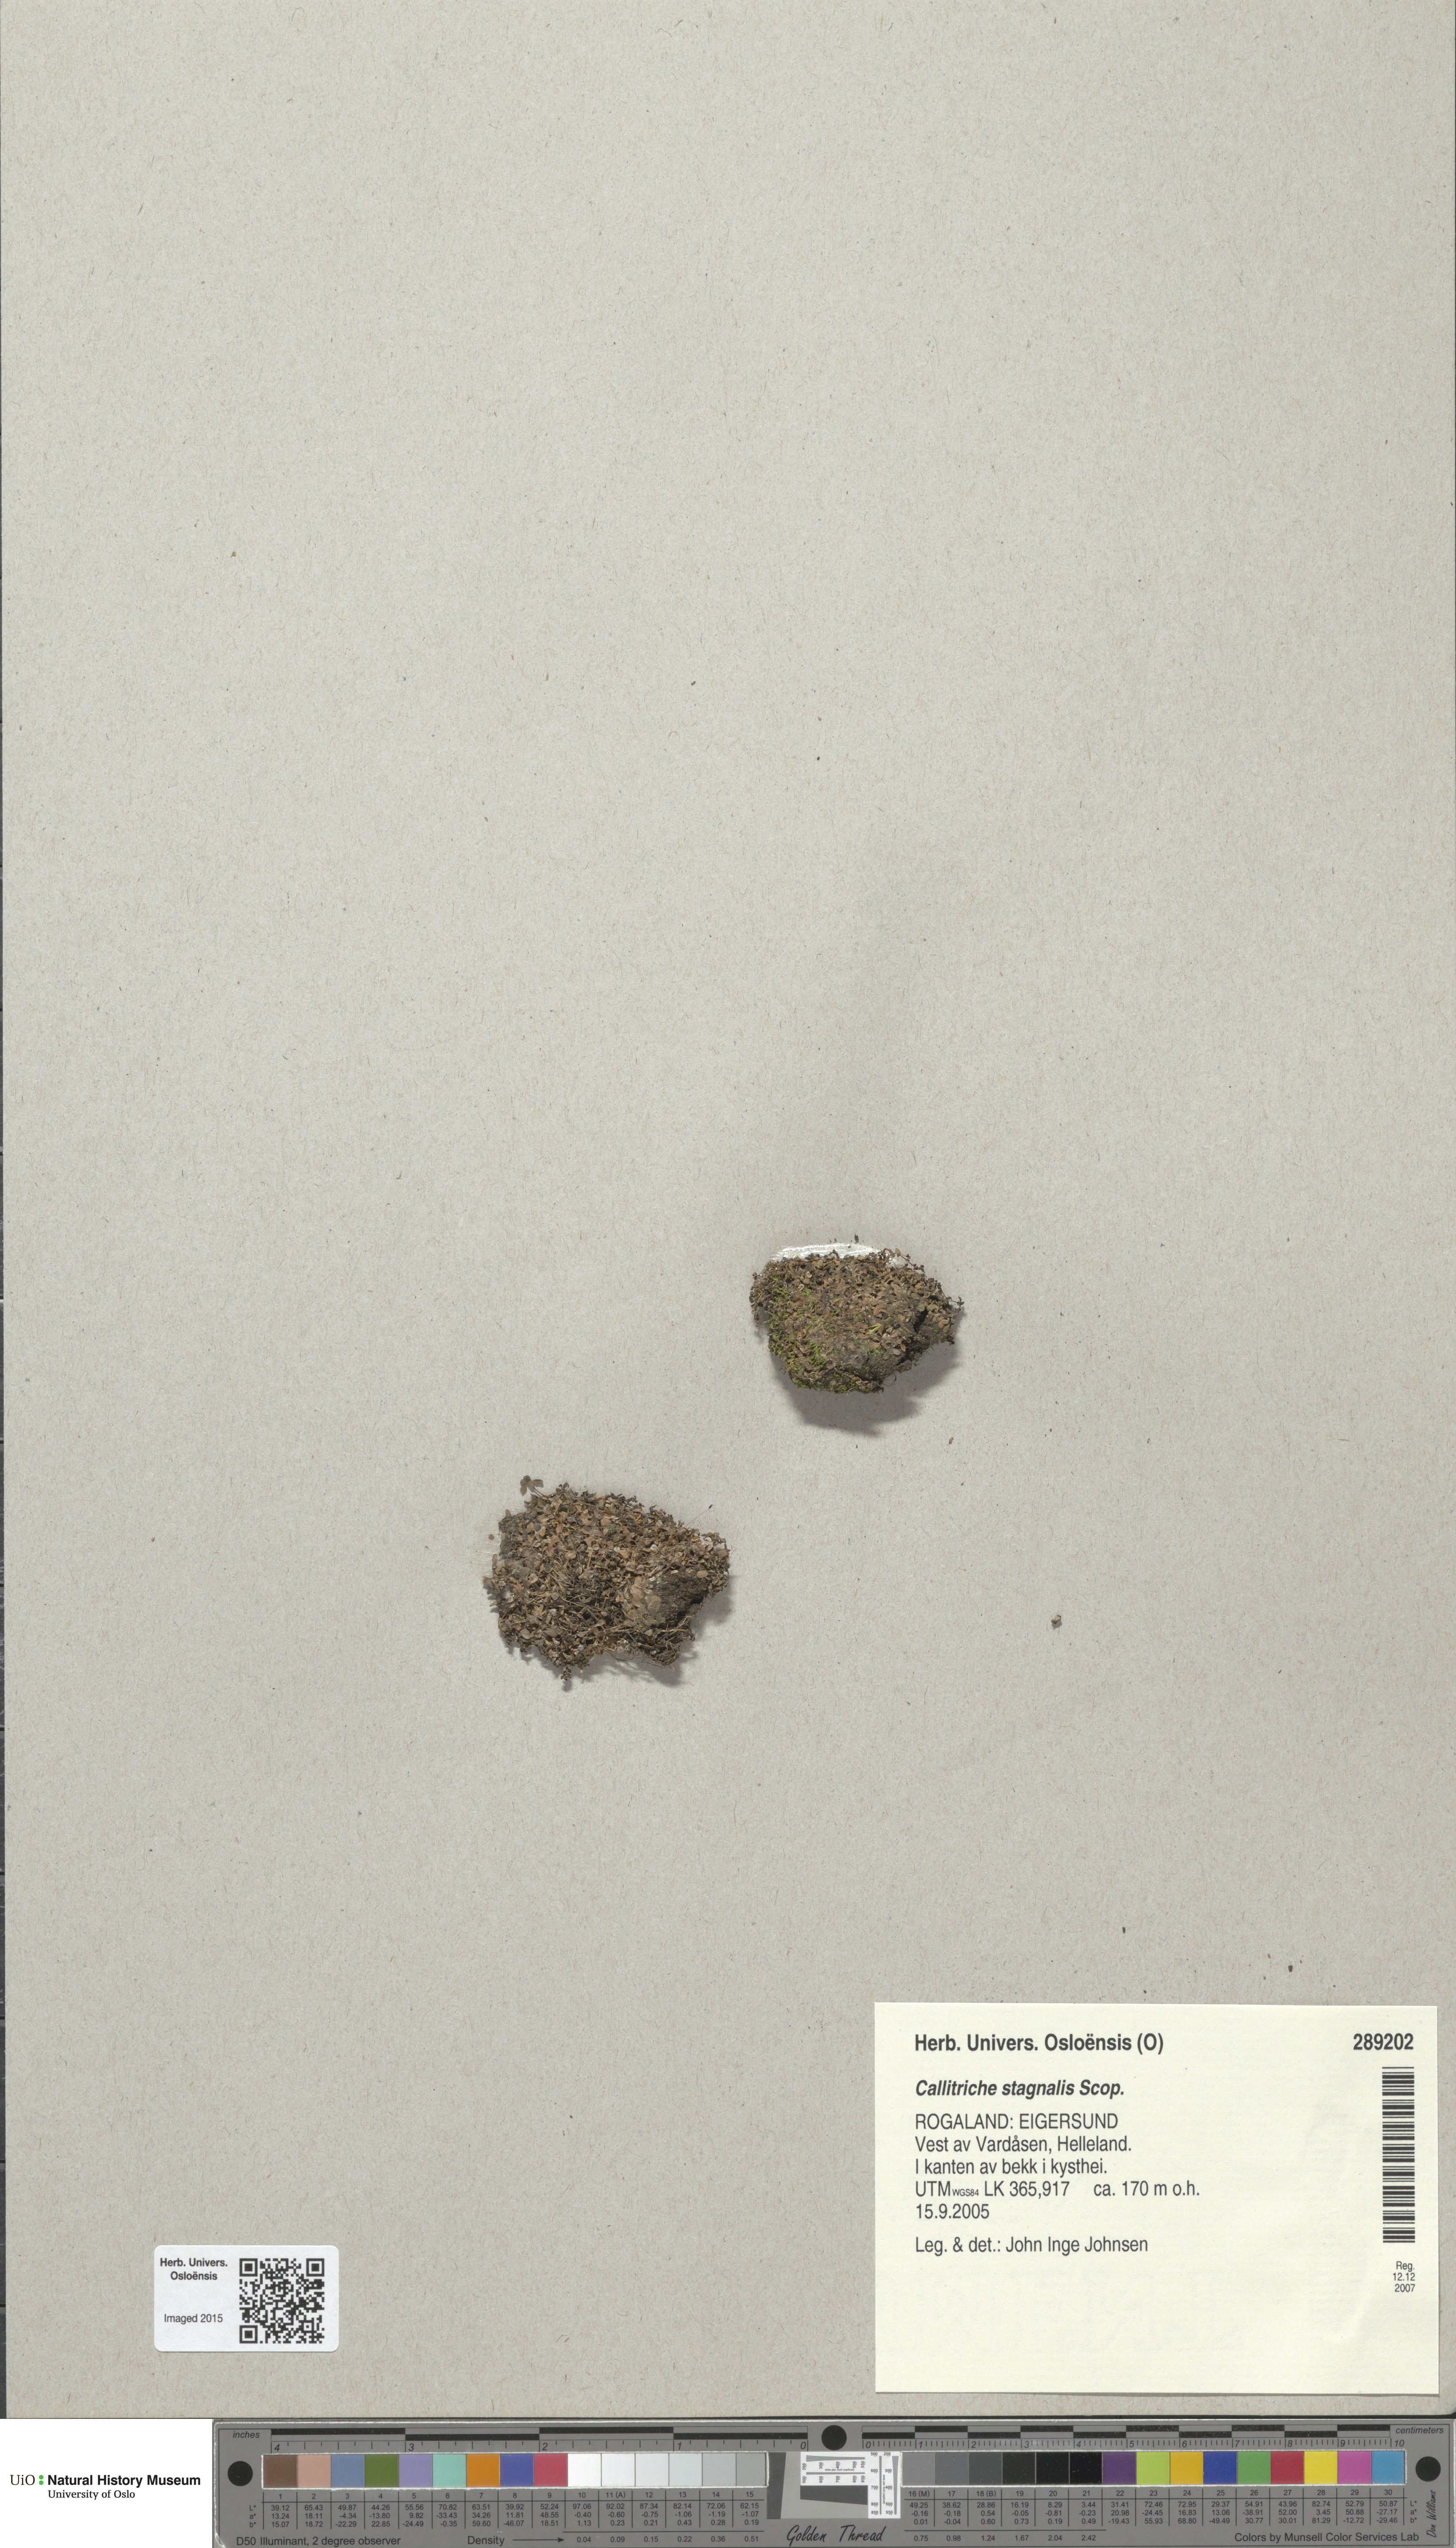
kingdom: Plantae
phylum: Tracheophyta
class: Magnoliopsida
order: Lamiales
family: Plantaginaceae
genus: Callitriche
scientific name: Callitriche stagnalis
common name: Common water-starwort
